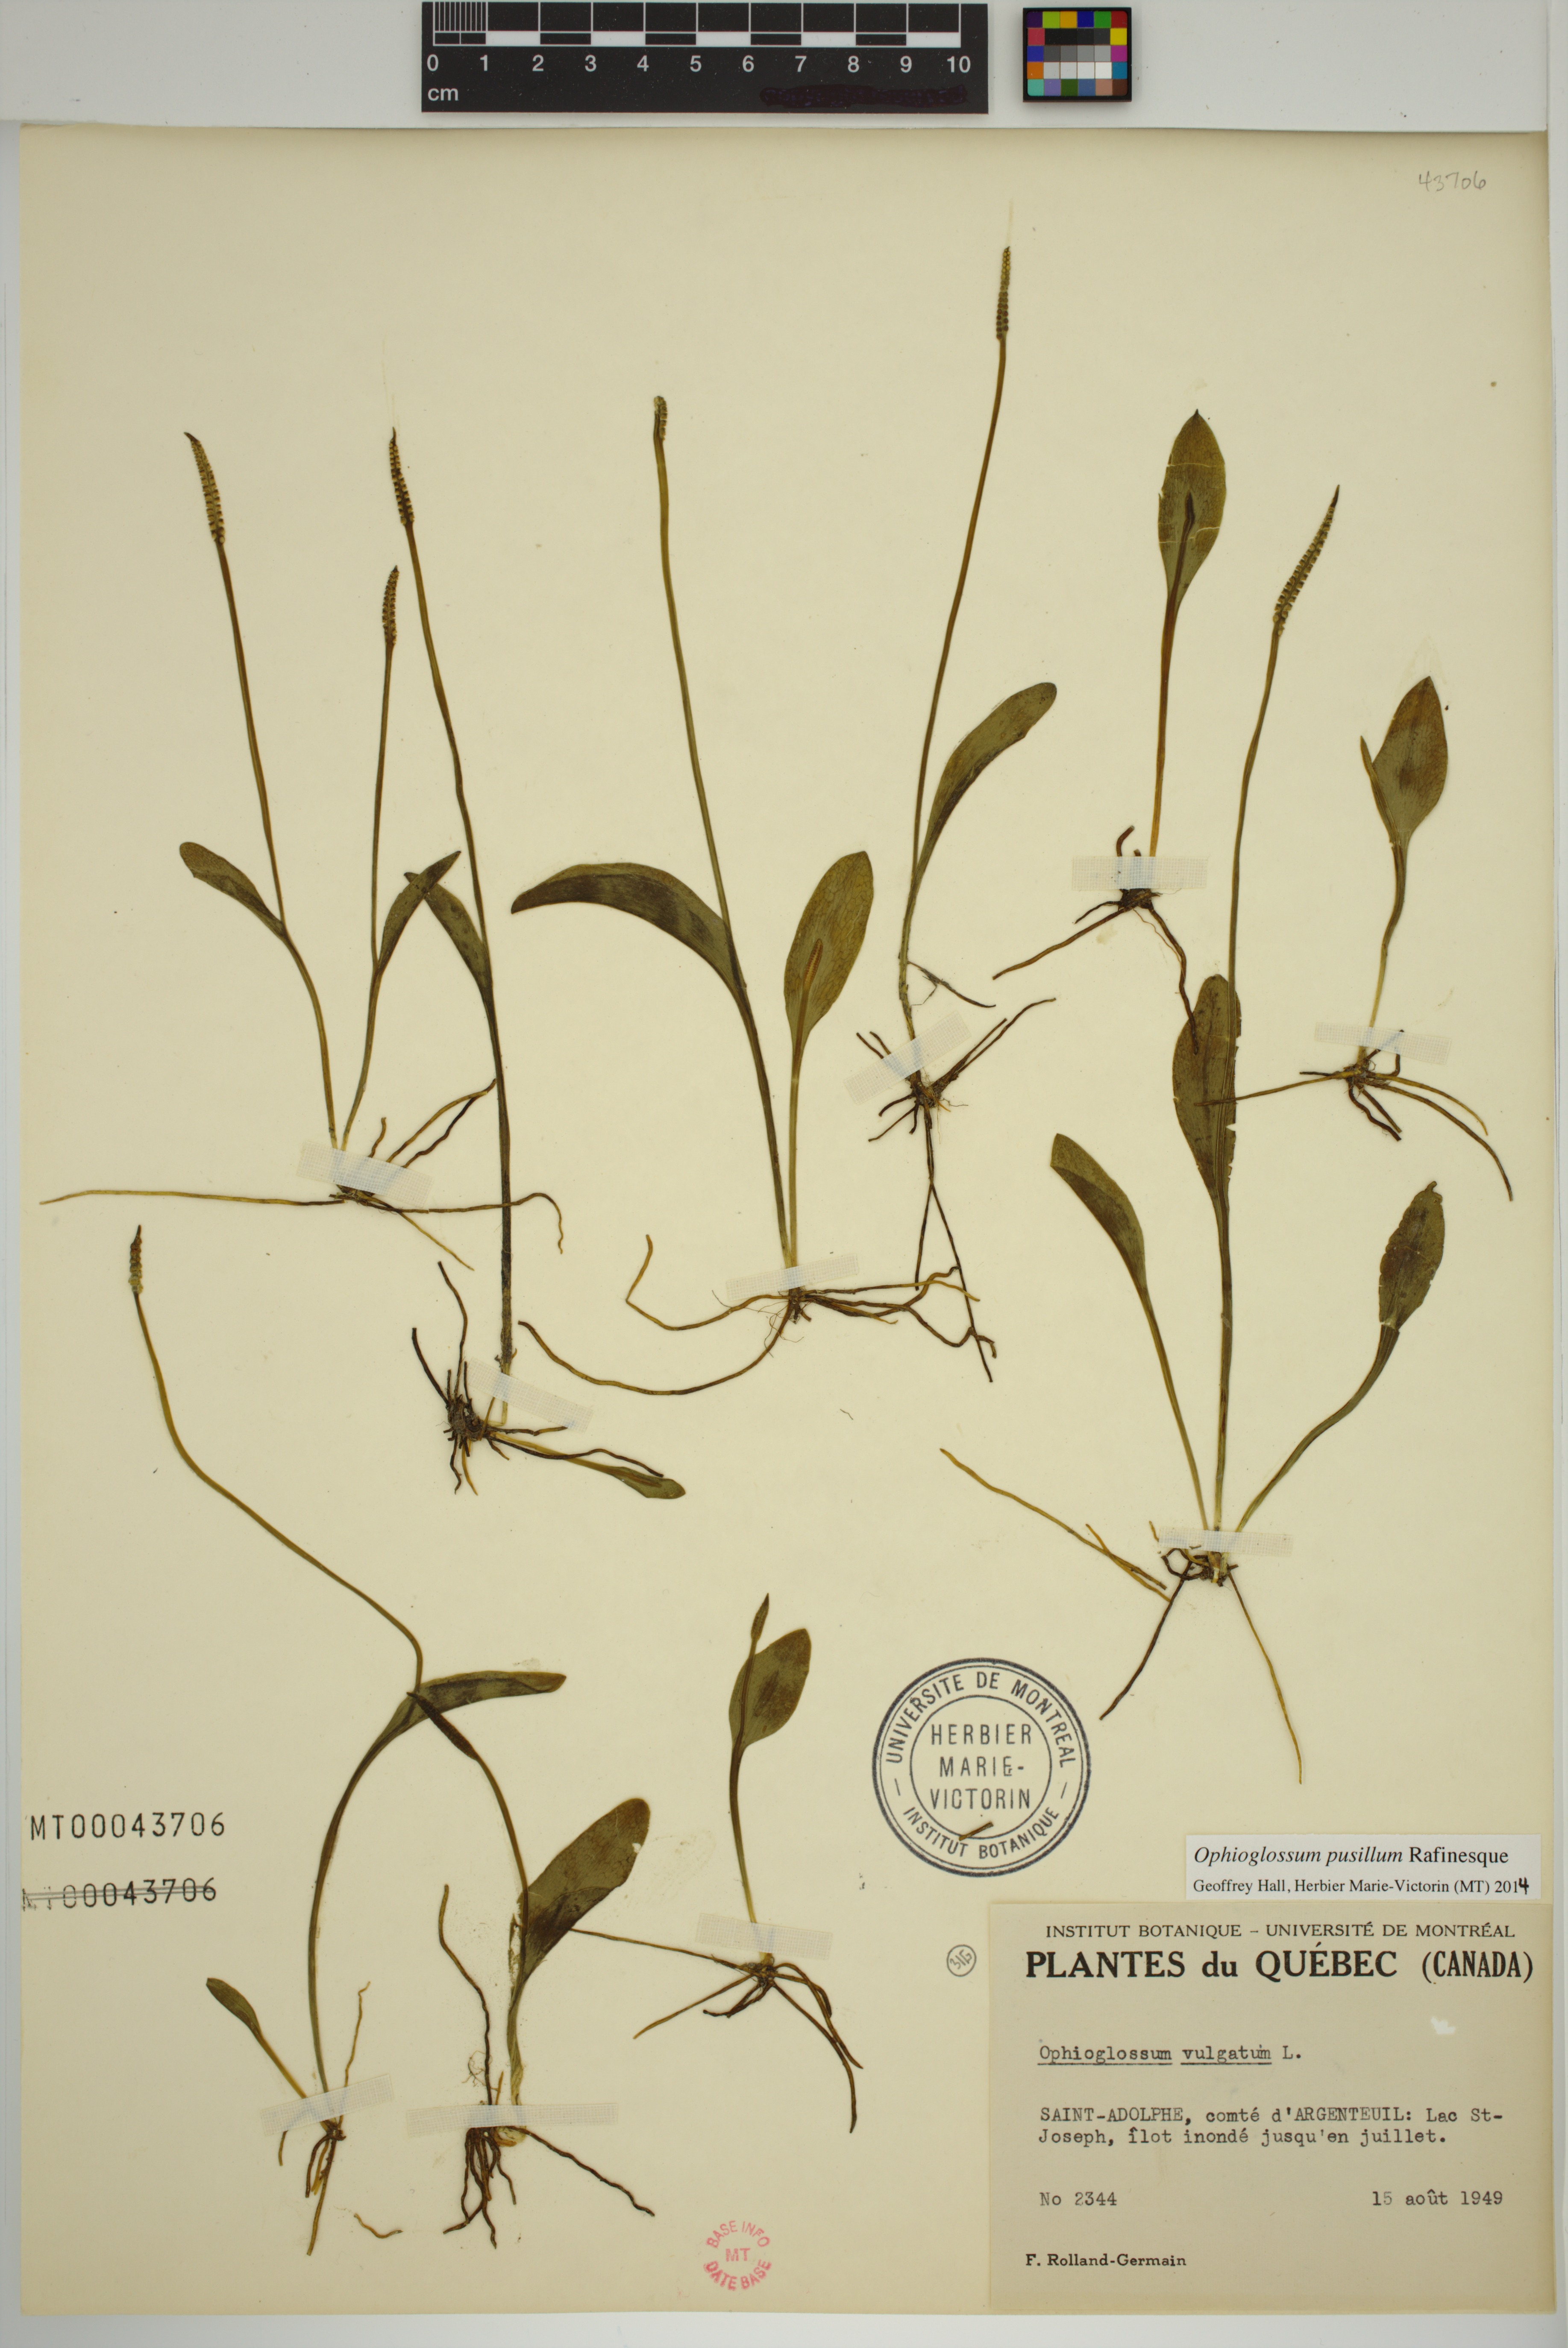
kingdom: Plantae
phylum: Tracheophyta
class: Polypodiopsida
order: Ophioglossales
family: Ophioglossaceae
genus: Ophioglossum
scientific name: Ophioglossum pusillum
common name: Northern adder's-tongue
